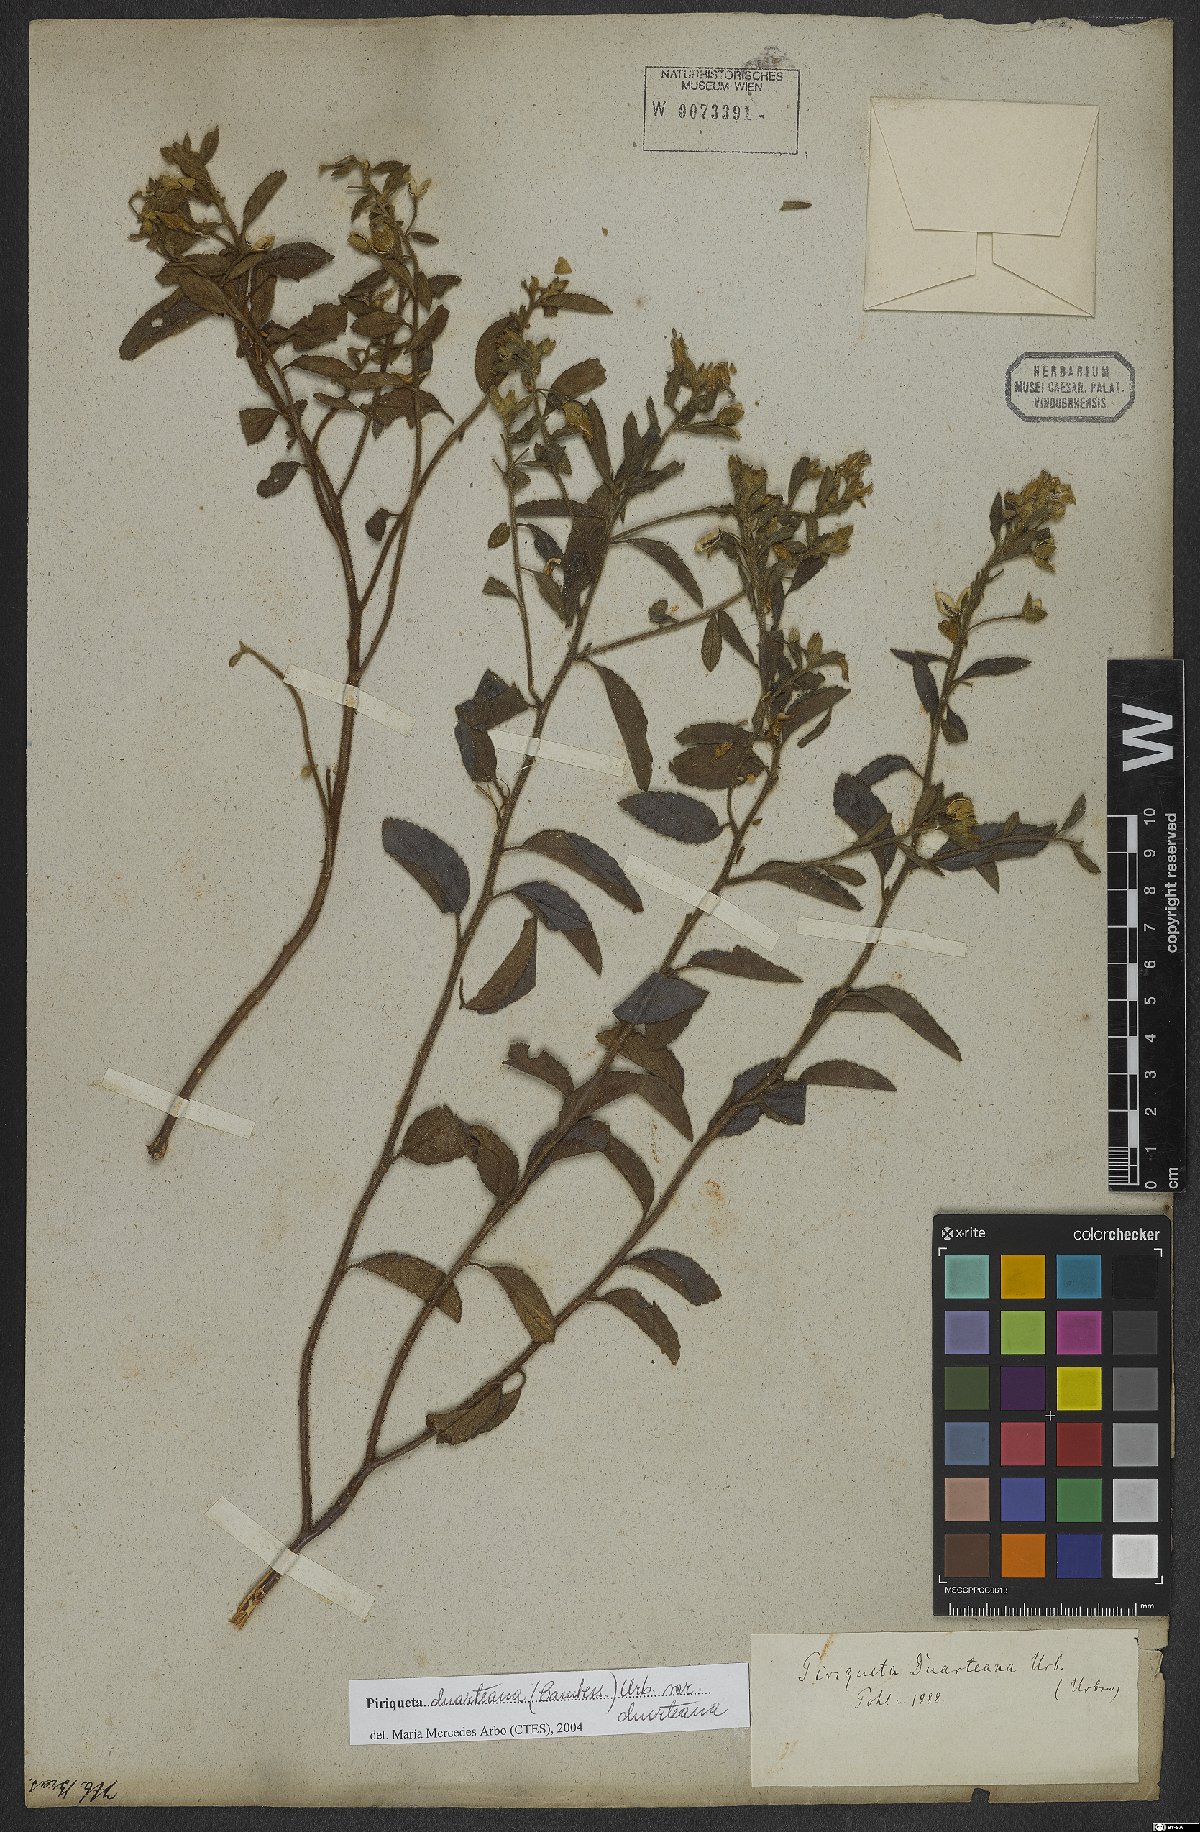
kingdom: Plantae
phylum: Tracheophyta
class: Magnoliopsida
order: Malpighiales
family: Turneraceae
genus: Piriqueta
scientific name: Piriqueta duarteana
